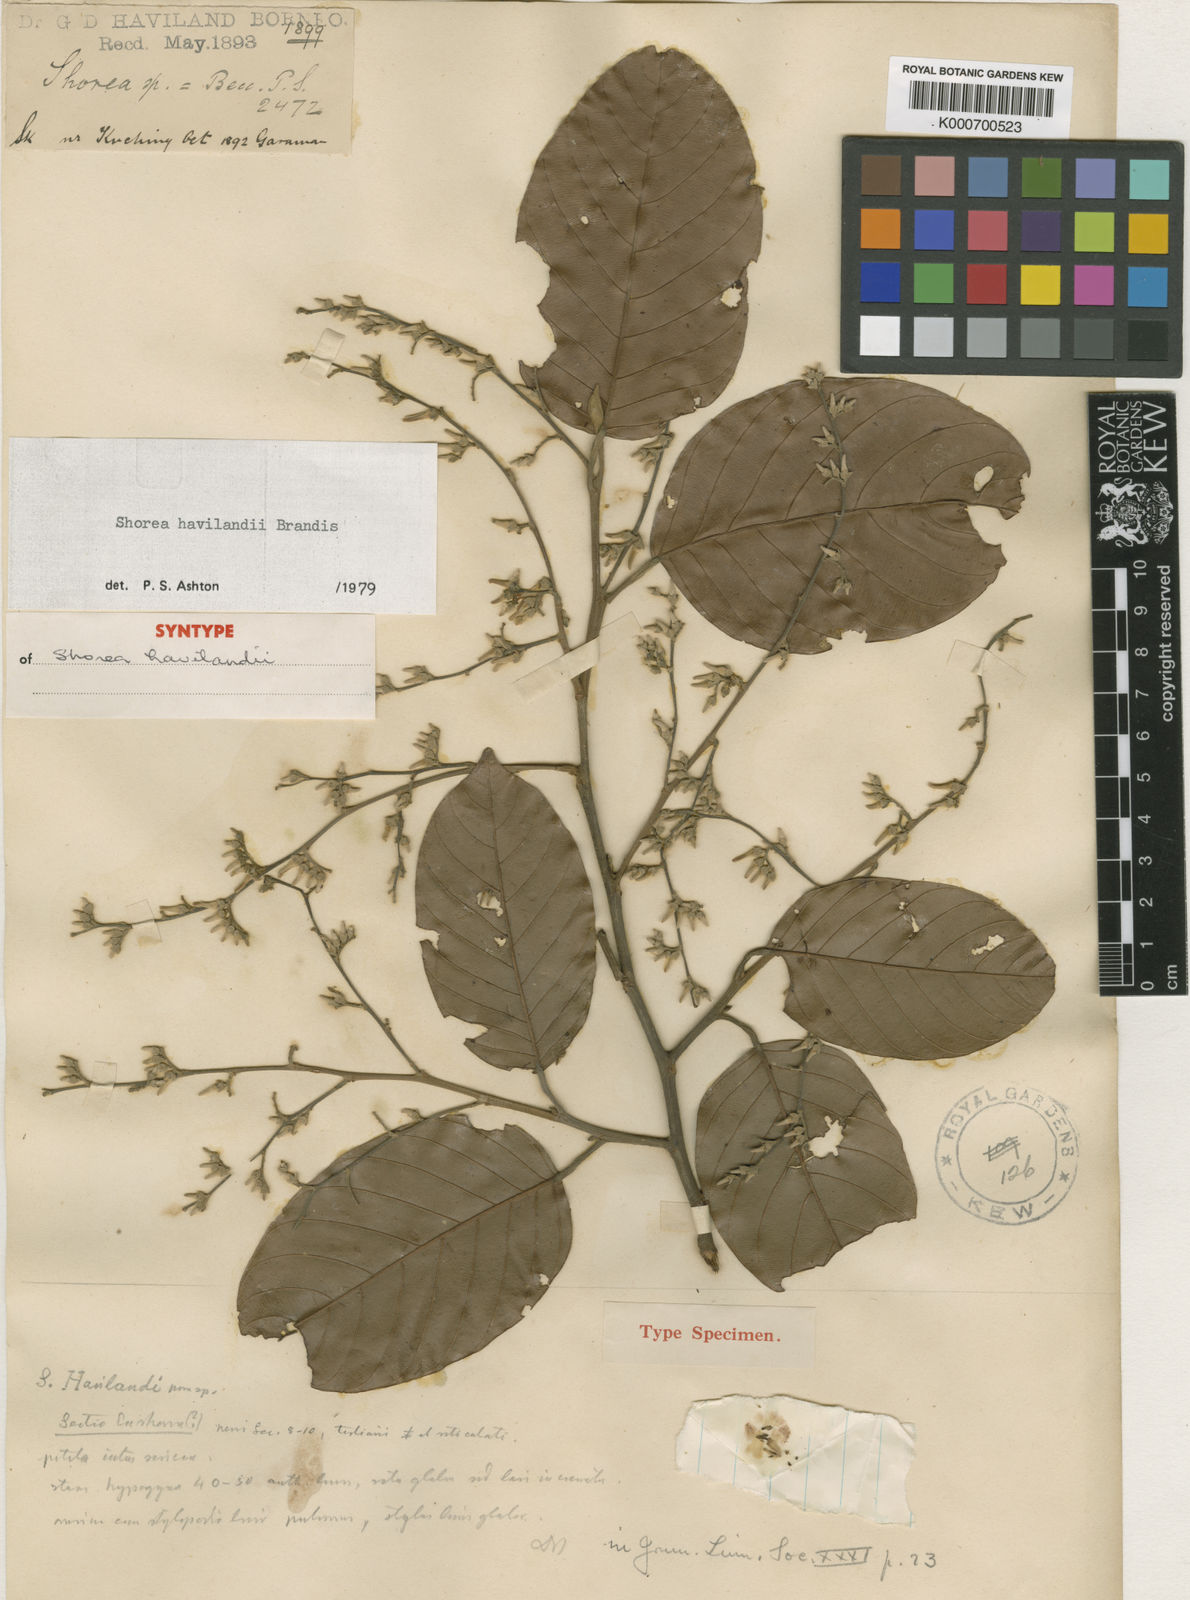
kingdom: Plantae
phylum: Tracheophyta
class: Magnoliopsida
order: Malvales
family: Dipterocarpaceae
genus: Shorea
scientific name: Shorea havilandii
